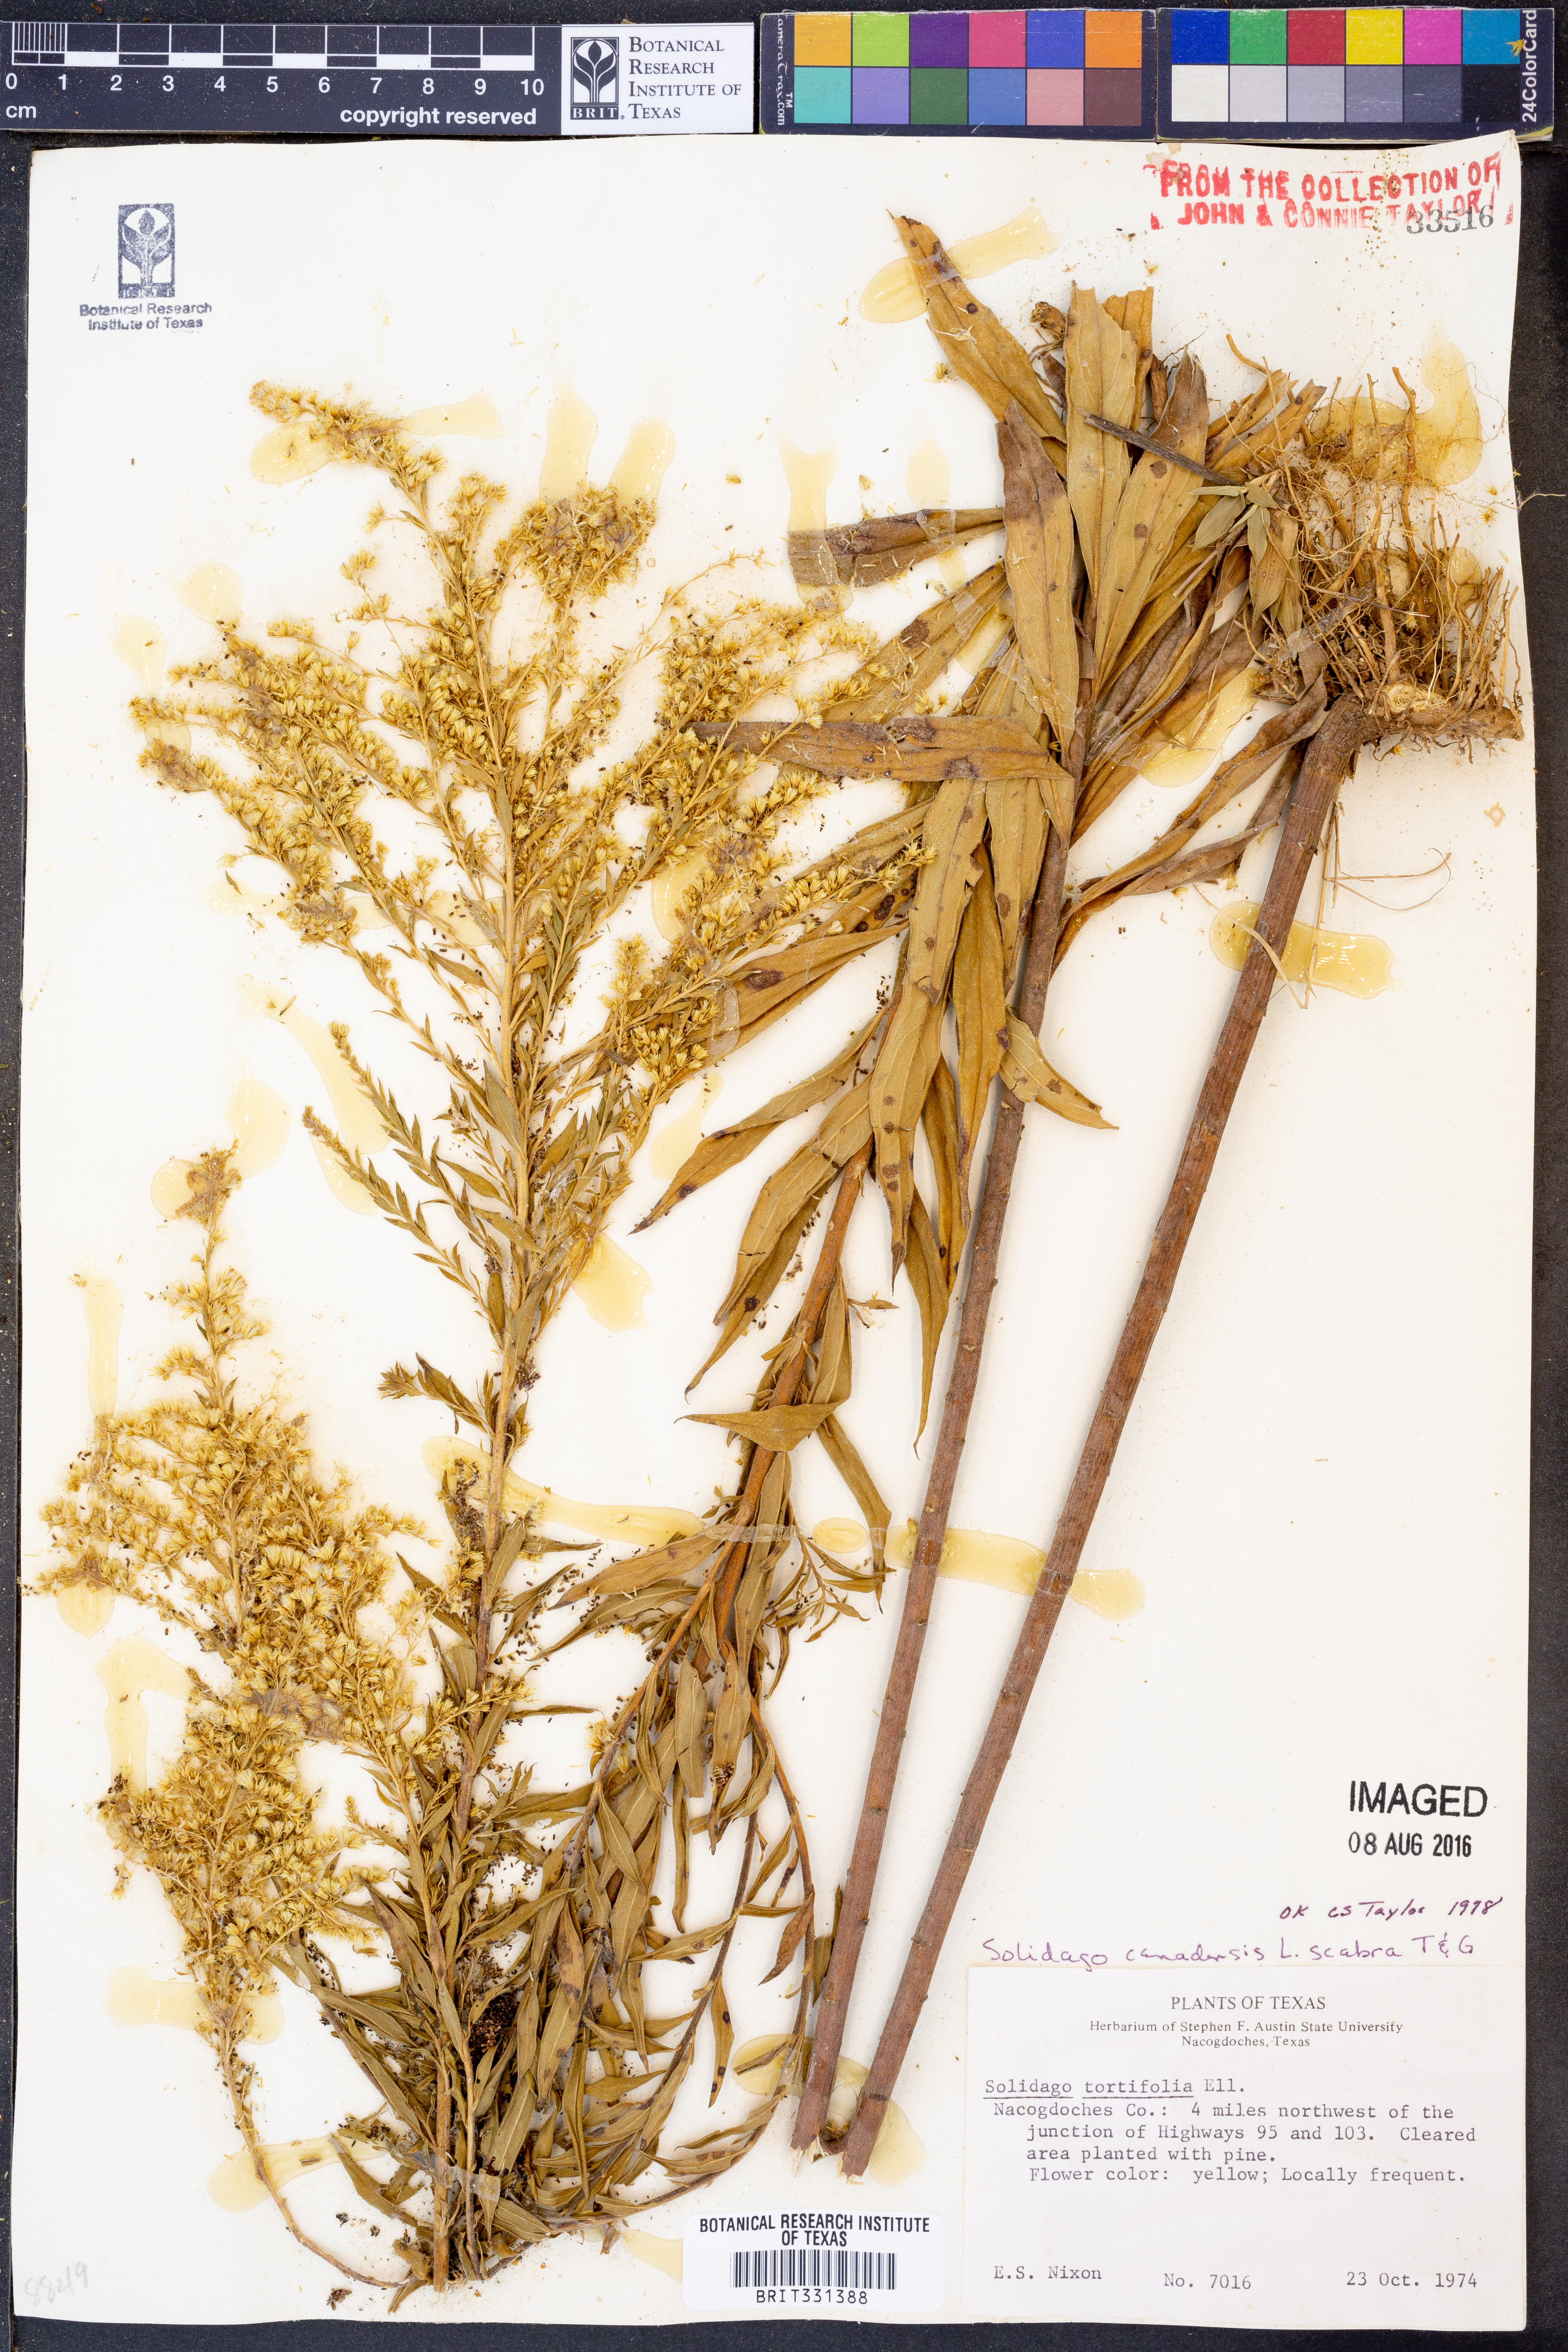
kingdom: Plantae
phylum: Tracheophyta
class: Magnoliopsida
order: Asterales
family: Asteraceae
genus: Solidago
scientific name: Solidago altissima
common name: Late goldenrod
